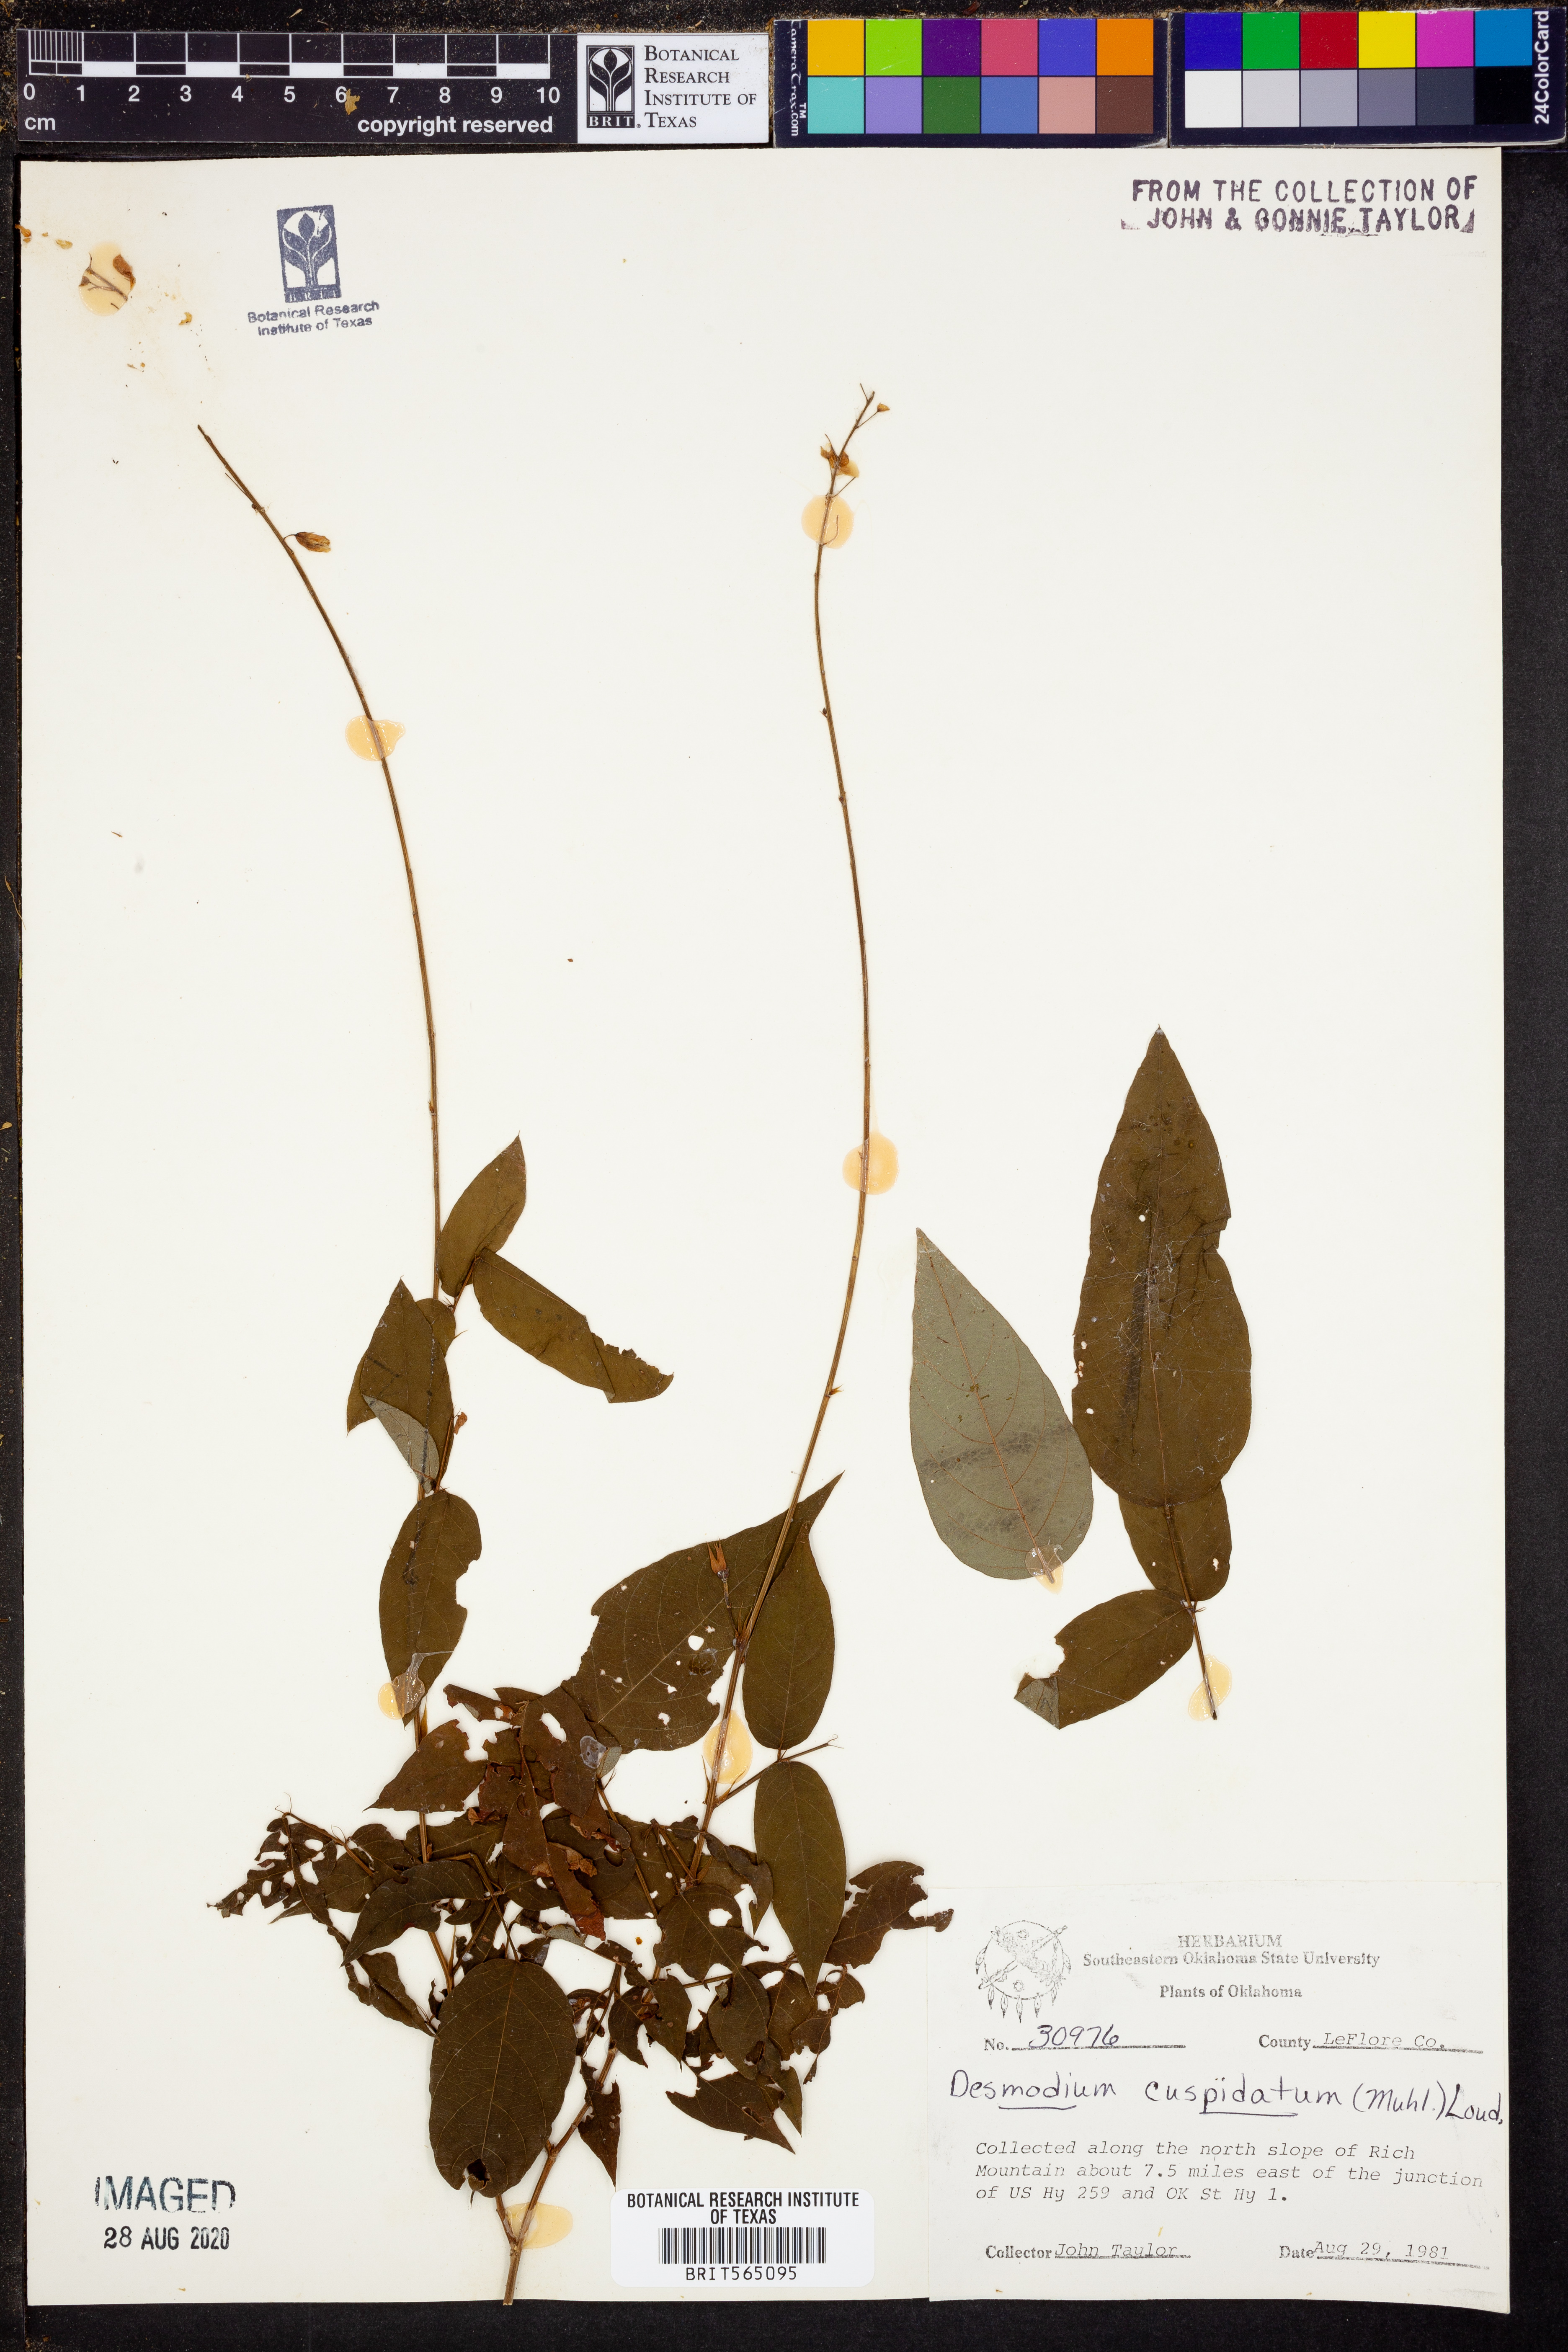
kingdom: Plantae
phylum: Tracheophyta
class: Magnoliopsida
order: Fabales
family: Fabaceae
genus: Desmodium
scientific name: Desmodium cuspidatum
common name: Big tick trefoil
